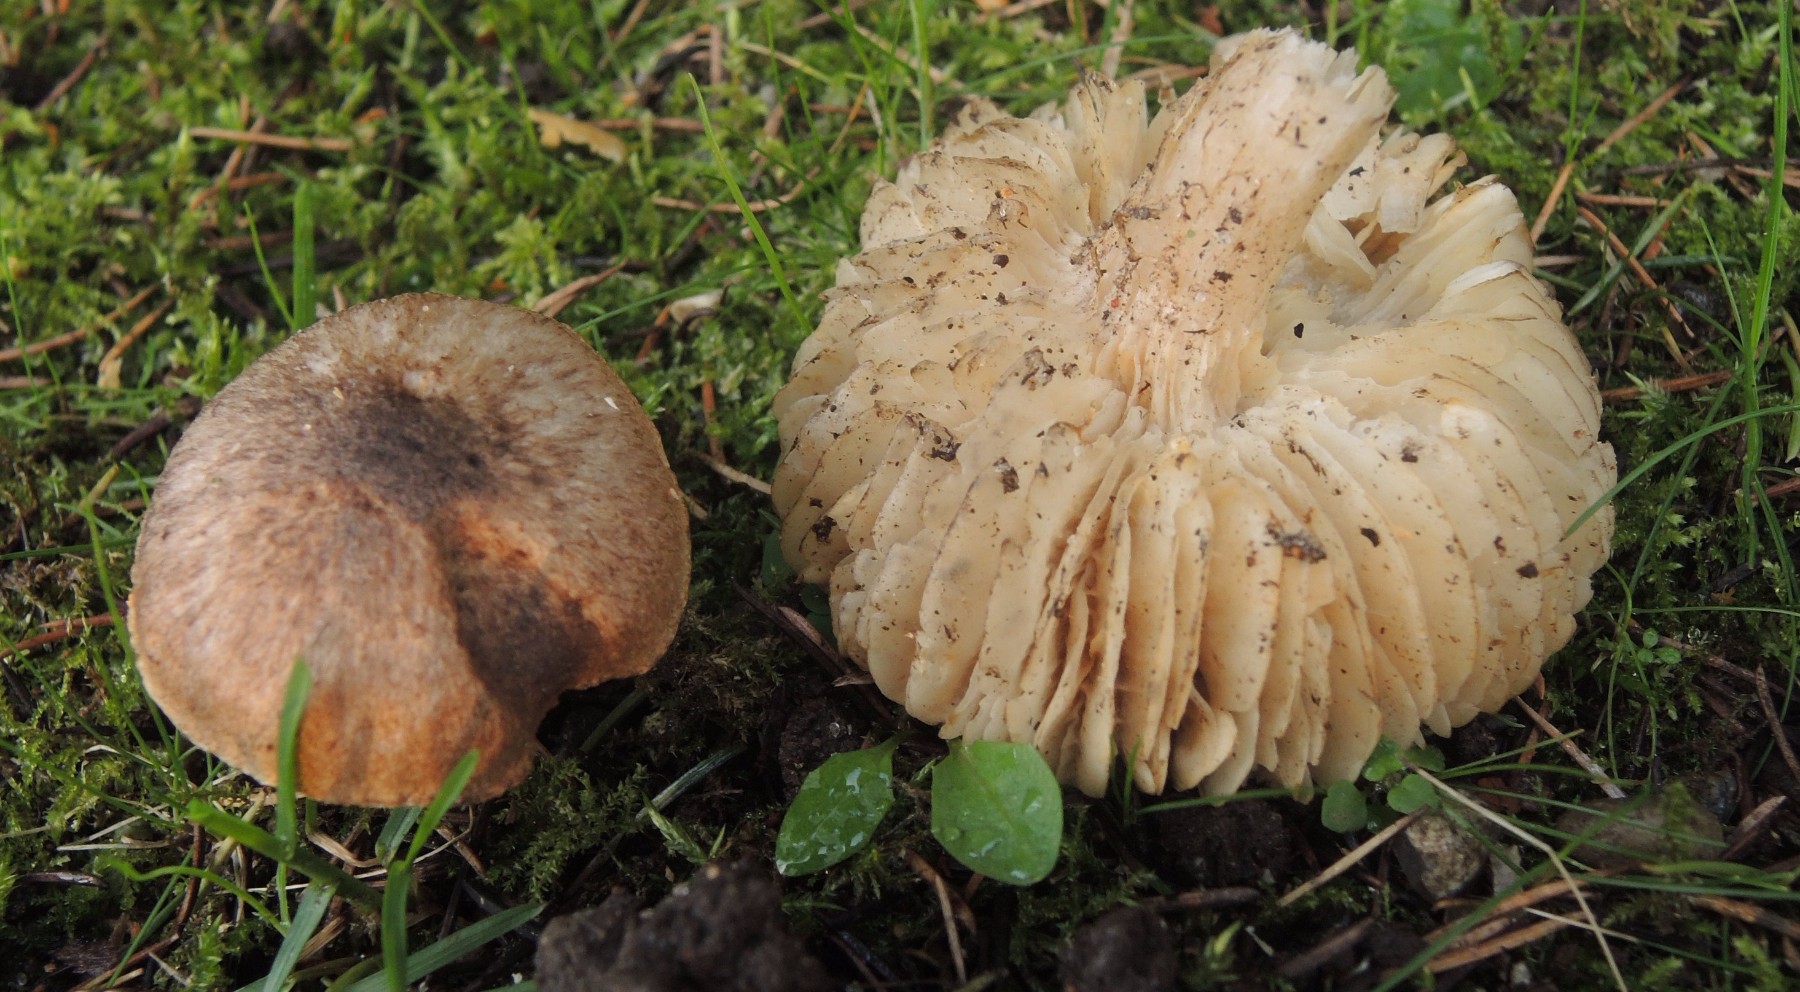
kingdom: Fungi
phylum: Basidiomycota
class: Agaricomycetes
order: Agaricales
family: Tricholomataceae
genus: Tricholoma
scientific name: Tricholoma scalpturatum
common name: gulplettet ridderhat
